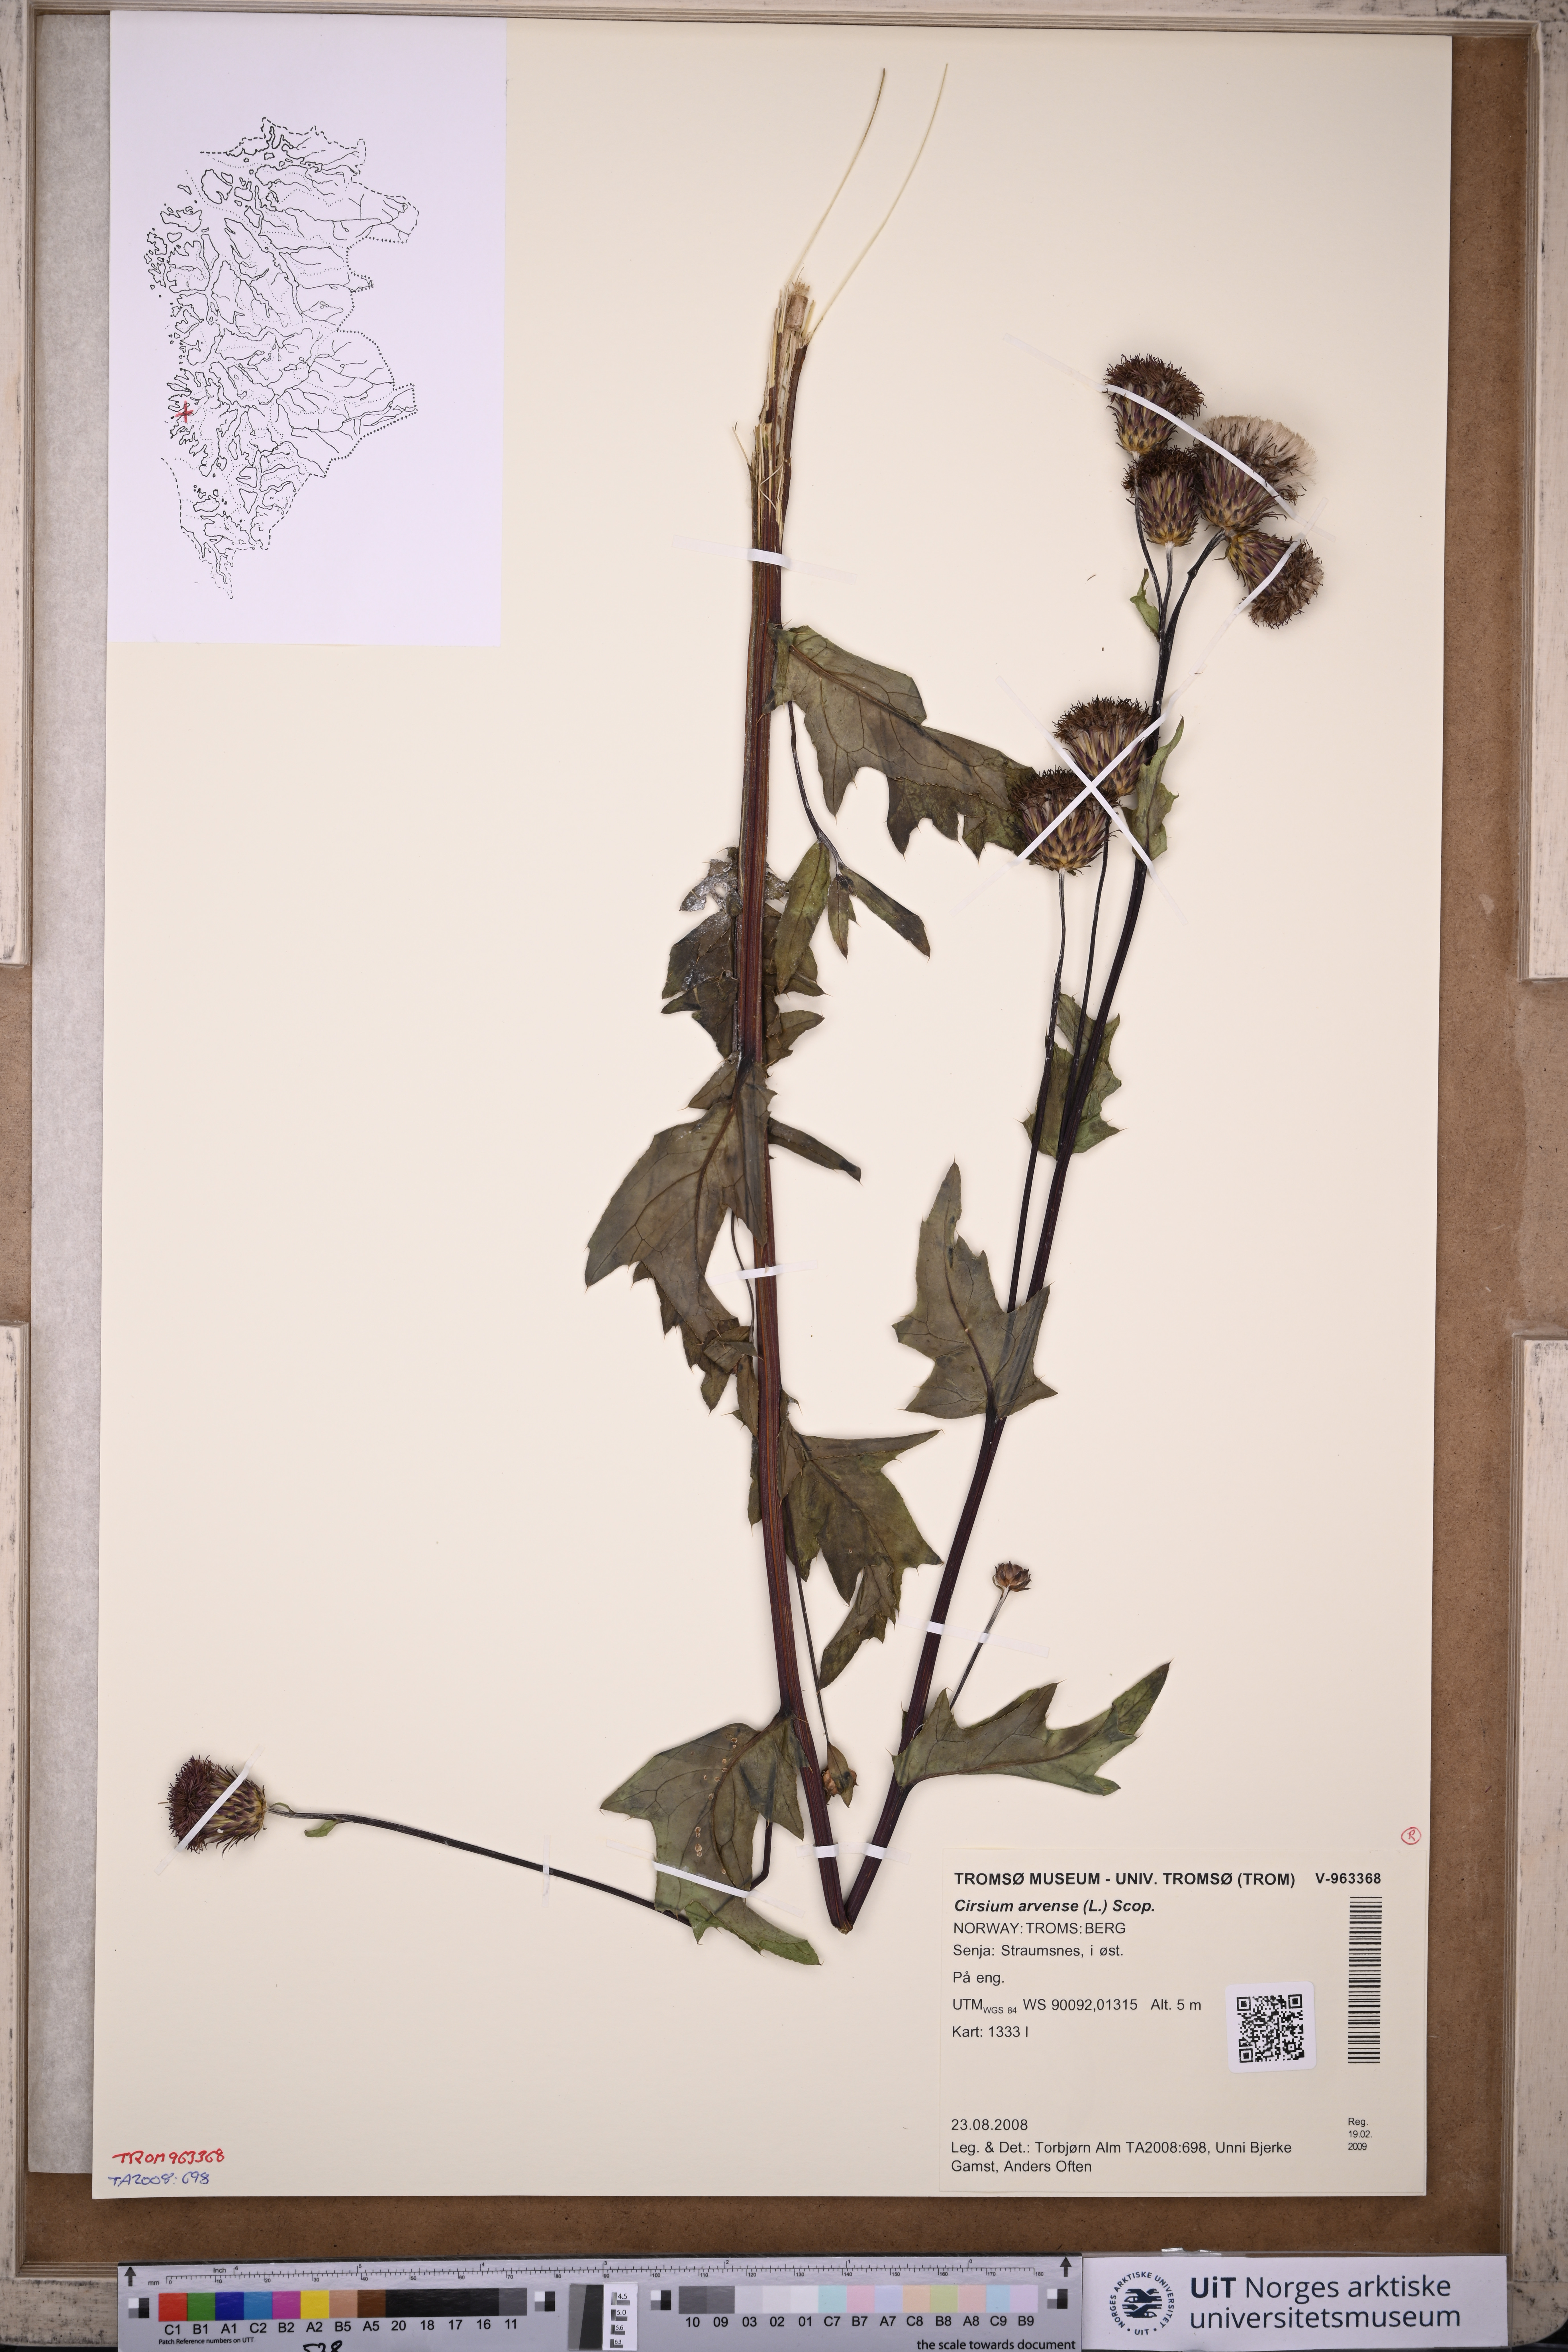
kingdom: Plantae
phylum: Tracheophyta
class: Magnoliopsida
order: Asterales
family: Asteraceae
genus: Cirsium
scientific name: Cirsium arvense
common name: Creeping thistle
